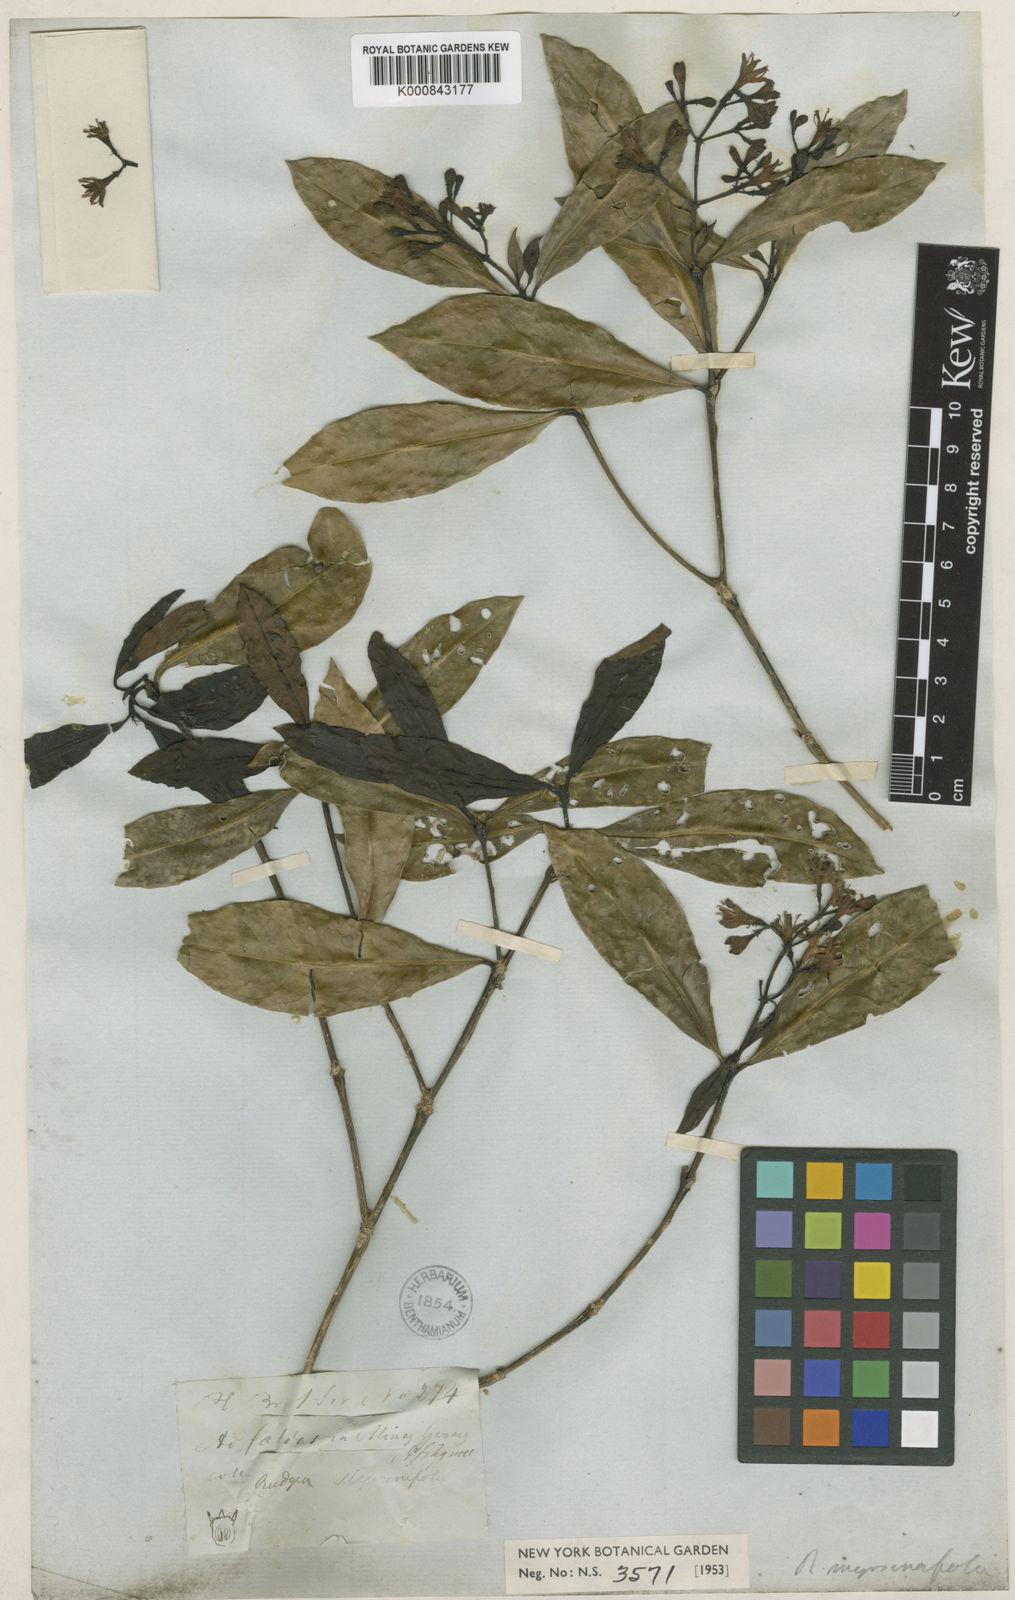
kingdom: Plantae
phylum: Tracheophyta
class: Magnoliopsida
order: Gentianales
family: Rubiaceae
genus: Rudgea
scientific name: Rudgea
